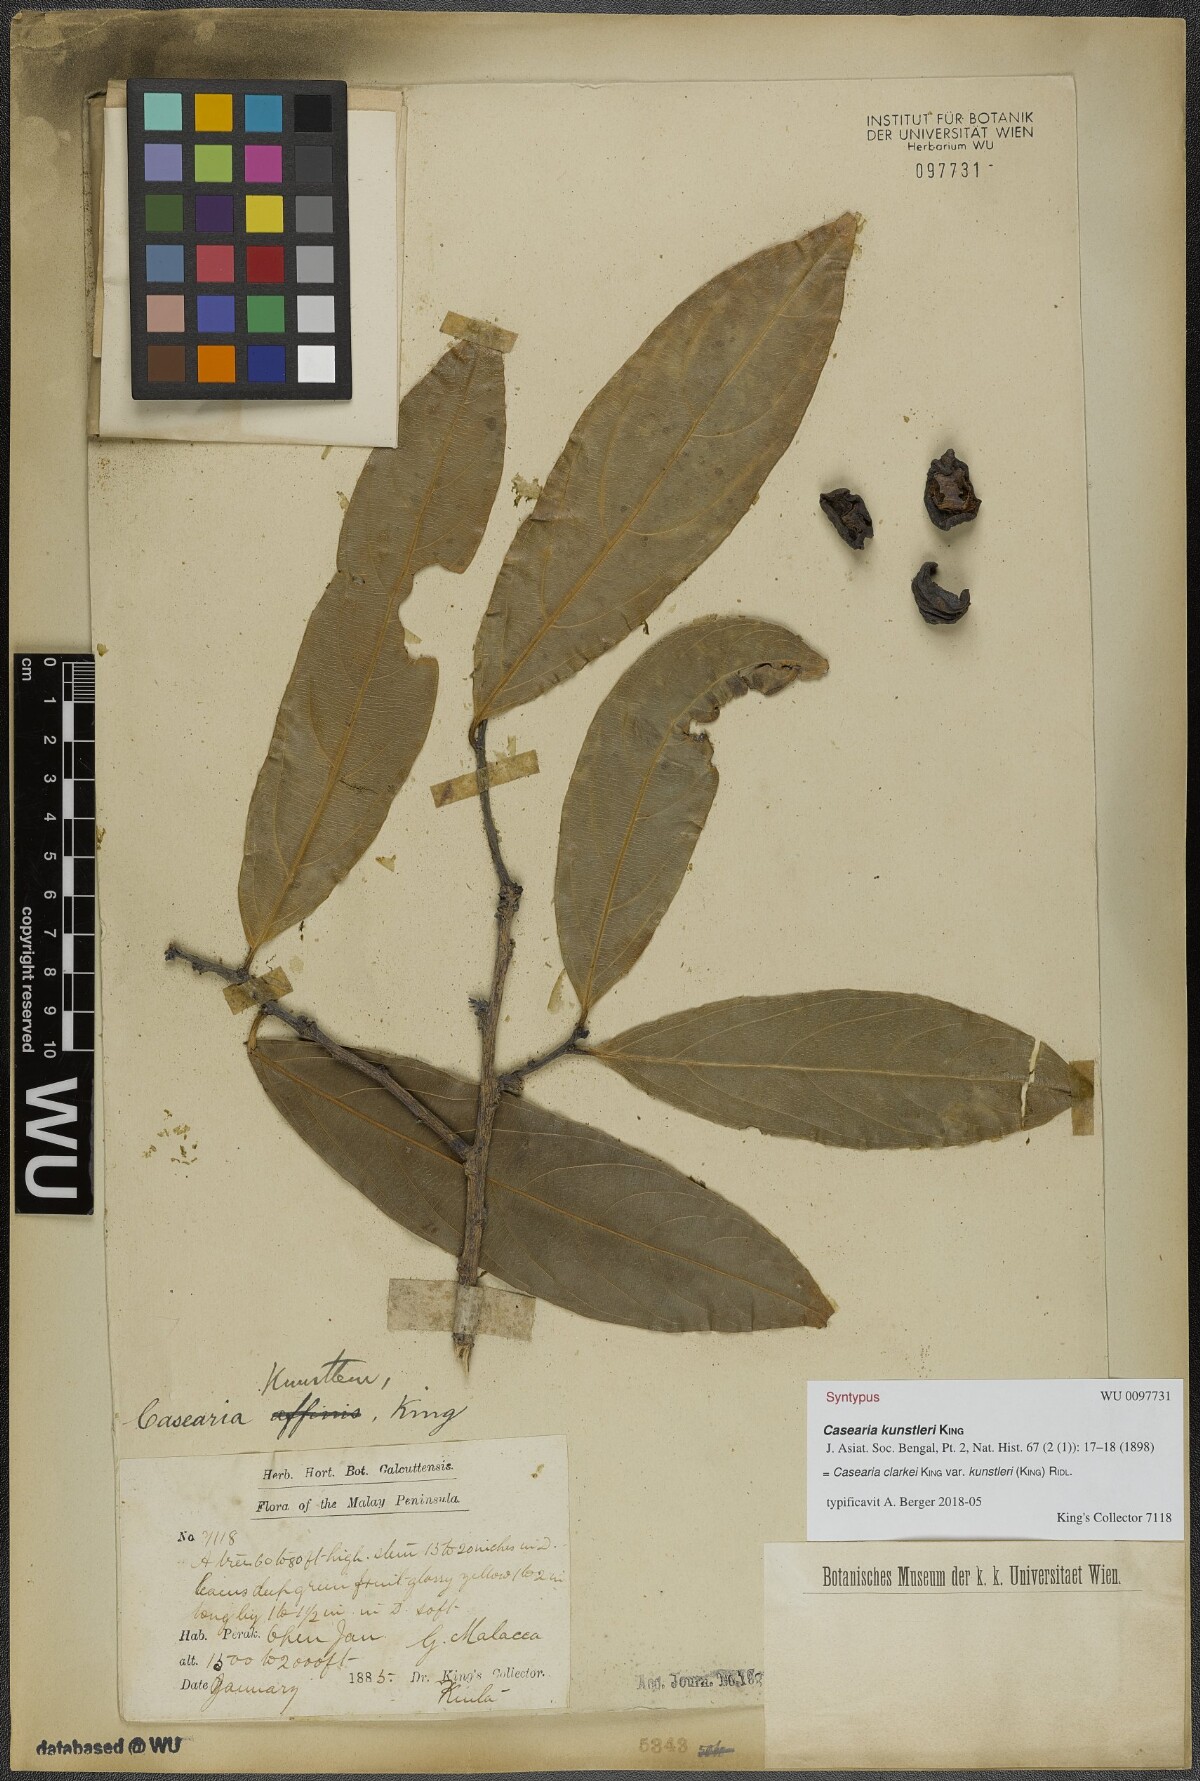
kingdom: Plantae
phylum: Tracheophyta
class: Magnoliopsida
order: Malpighiales
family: Salicaceae
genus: Casearia
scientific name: Casearia clarkei
